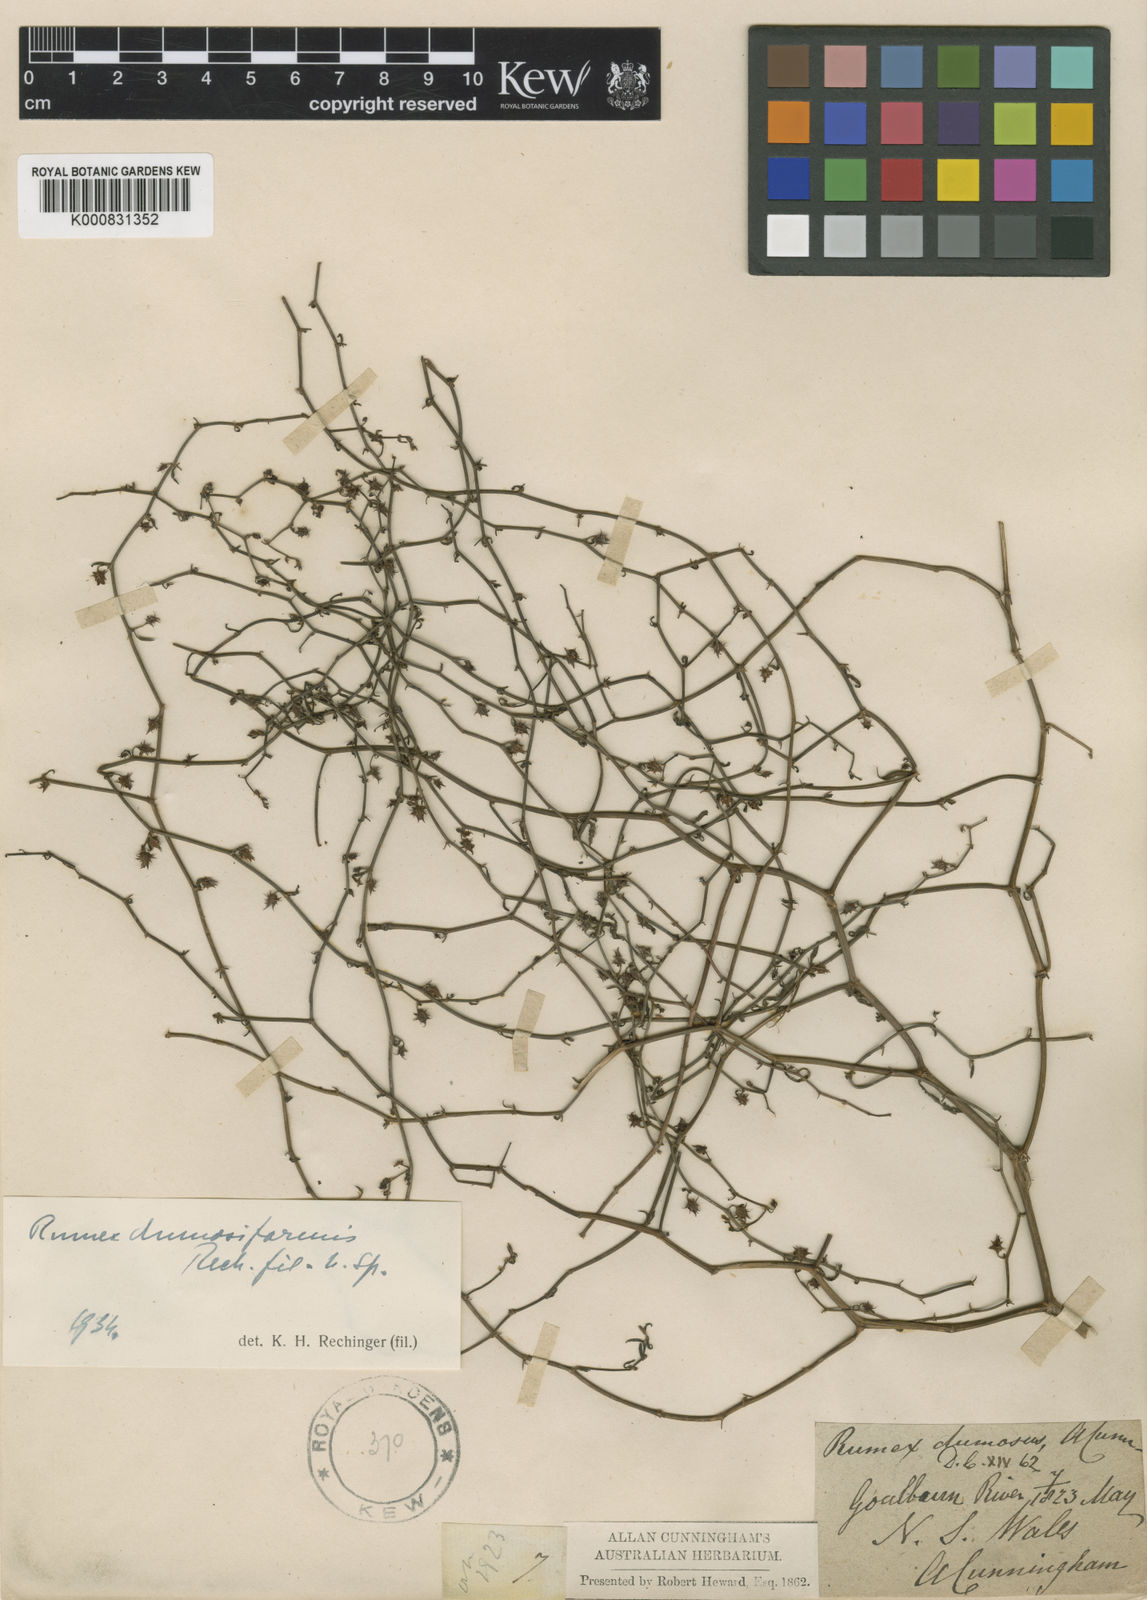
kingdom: Plantae
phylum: Tracheophyta
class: Magnoliopsida
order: Caryophyllales
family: Polygonaceae
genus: Rumex
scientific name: Rumex dumosus
